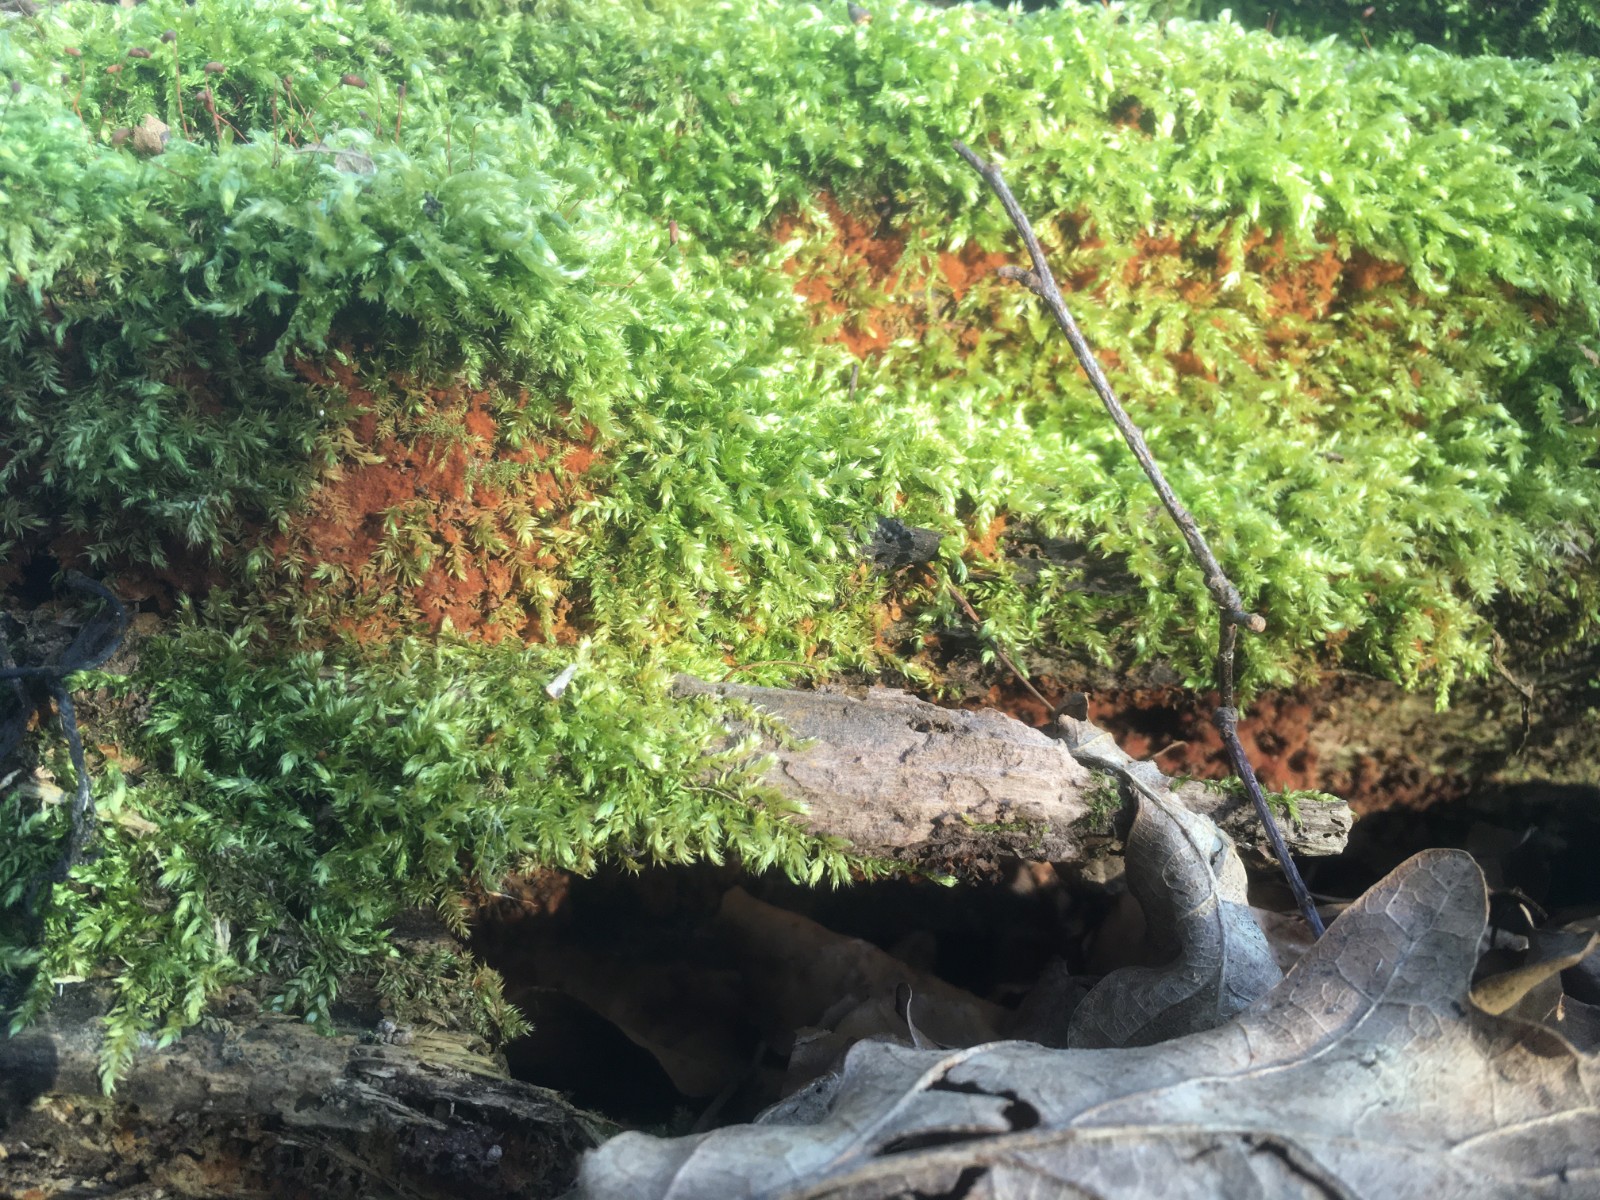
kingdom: Protozoa
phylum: Mycetozoa
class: Myxomycetes
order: Trichiales
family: Trichiaceae
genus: Metatrichia
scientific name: Metatrichia floriformis
